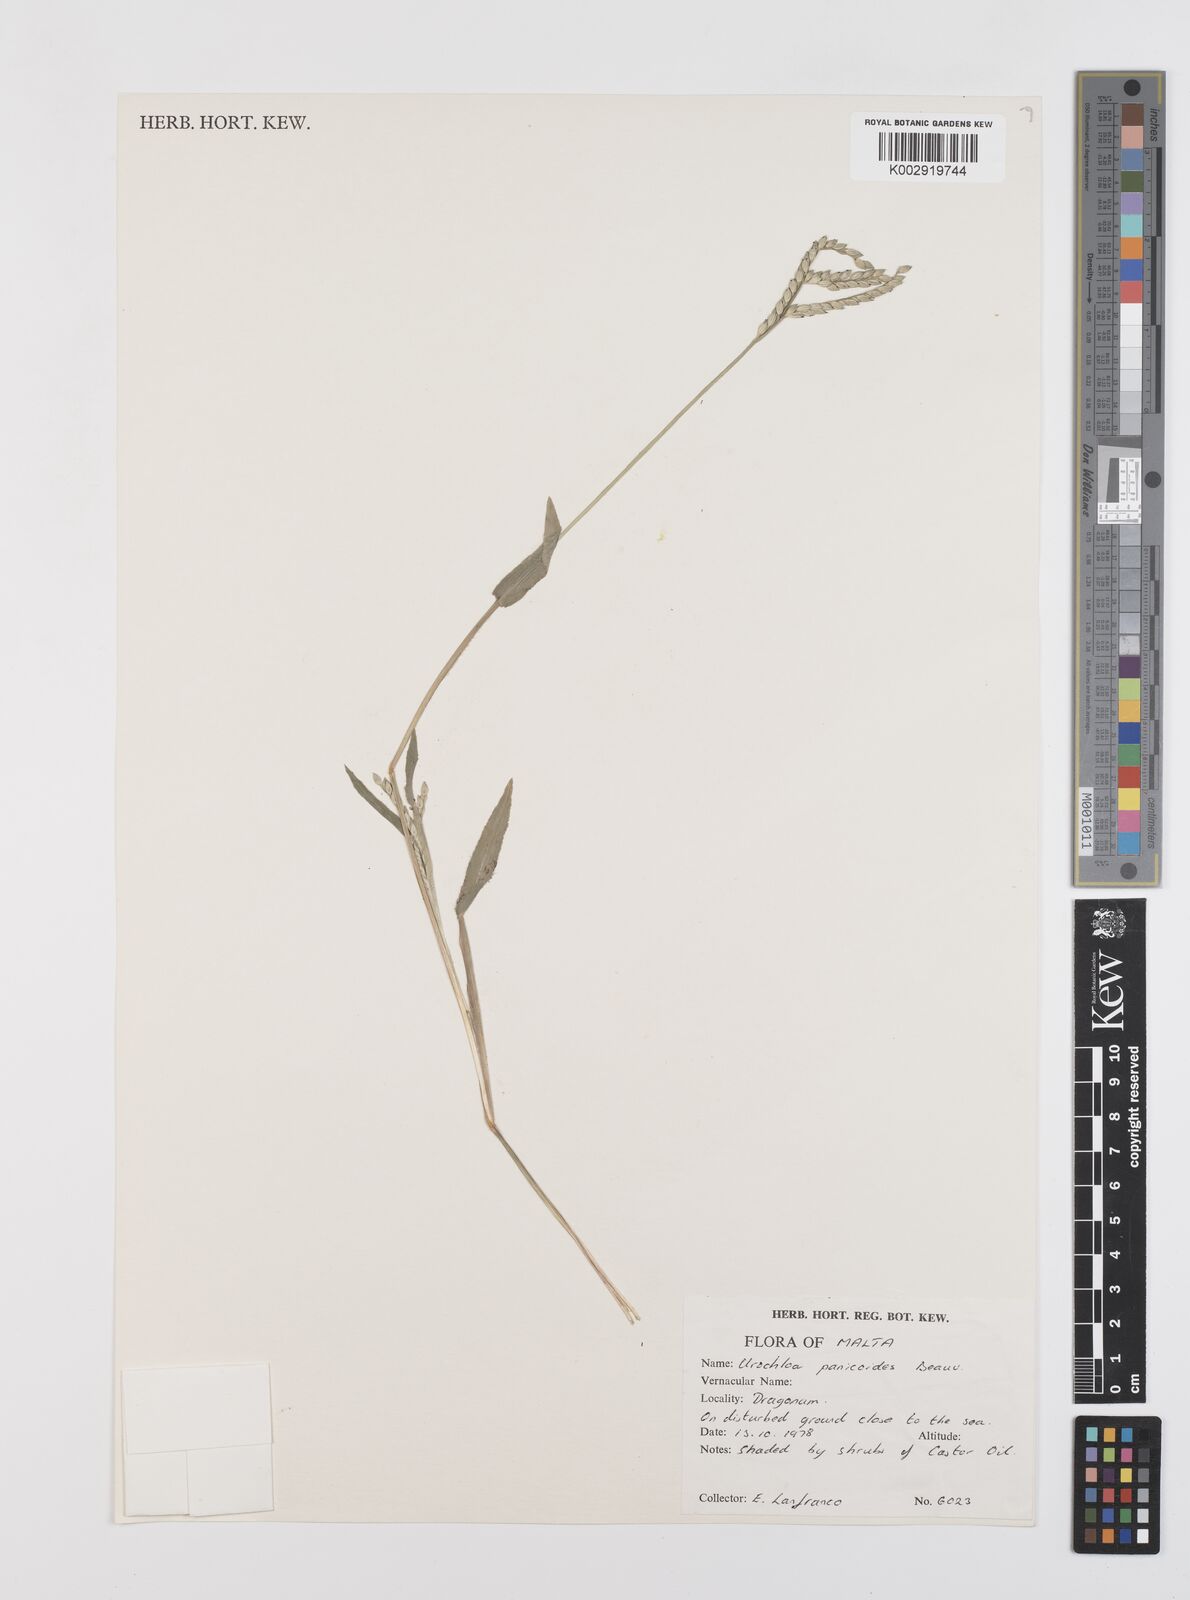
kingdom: Plantae
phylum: Tracheophyta
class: Liliopsida
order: Poales
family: Poaceae
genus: Brachiaria
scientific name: Brachiaria
